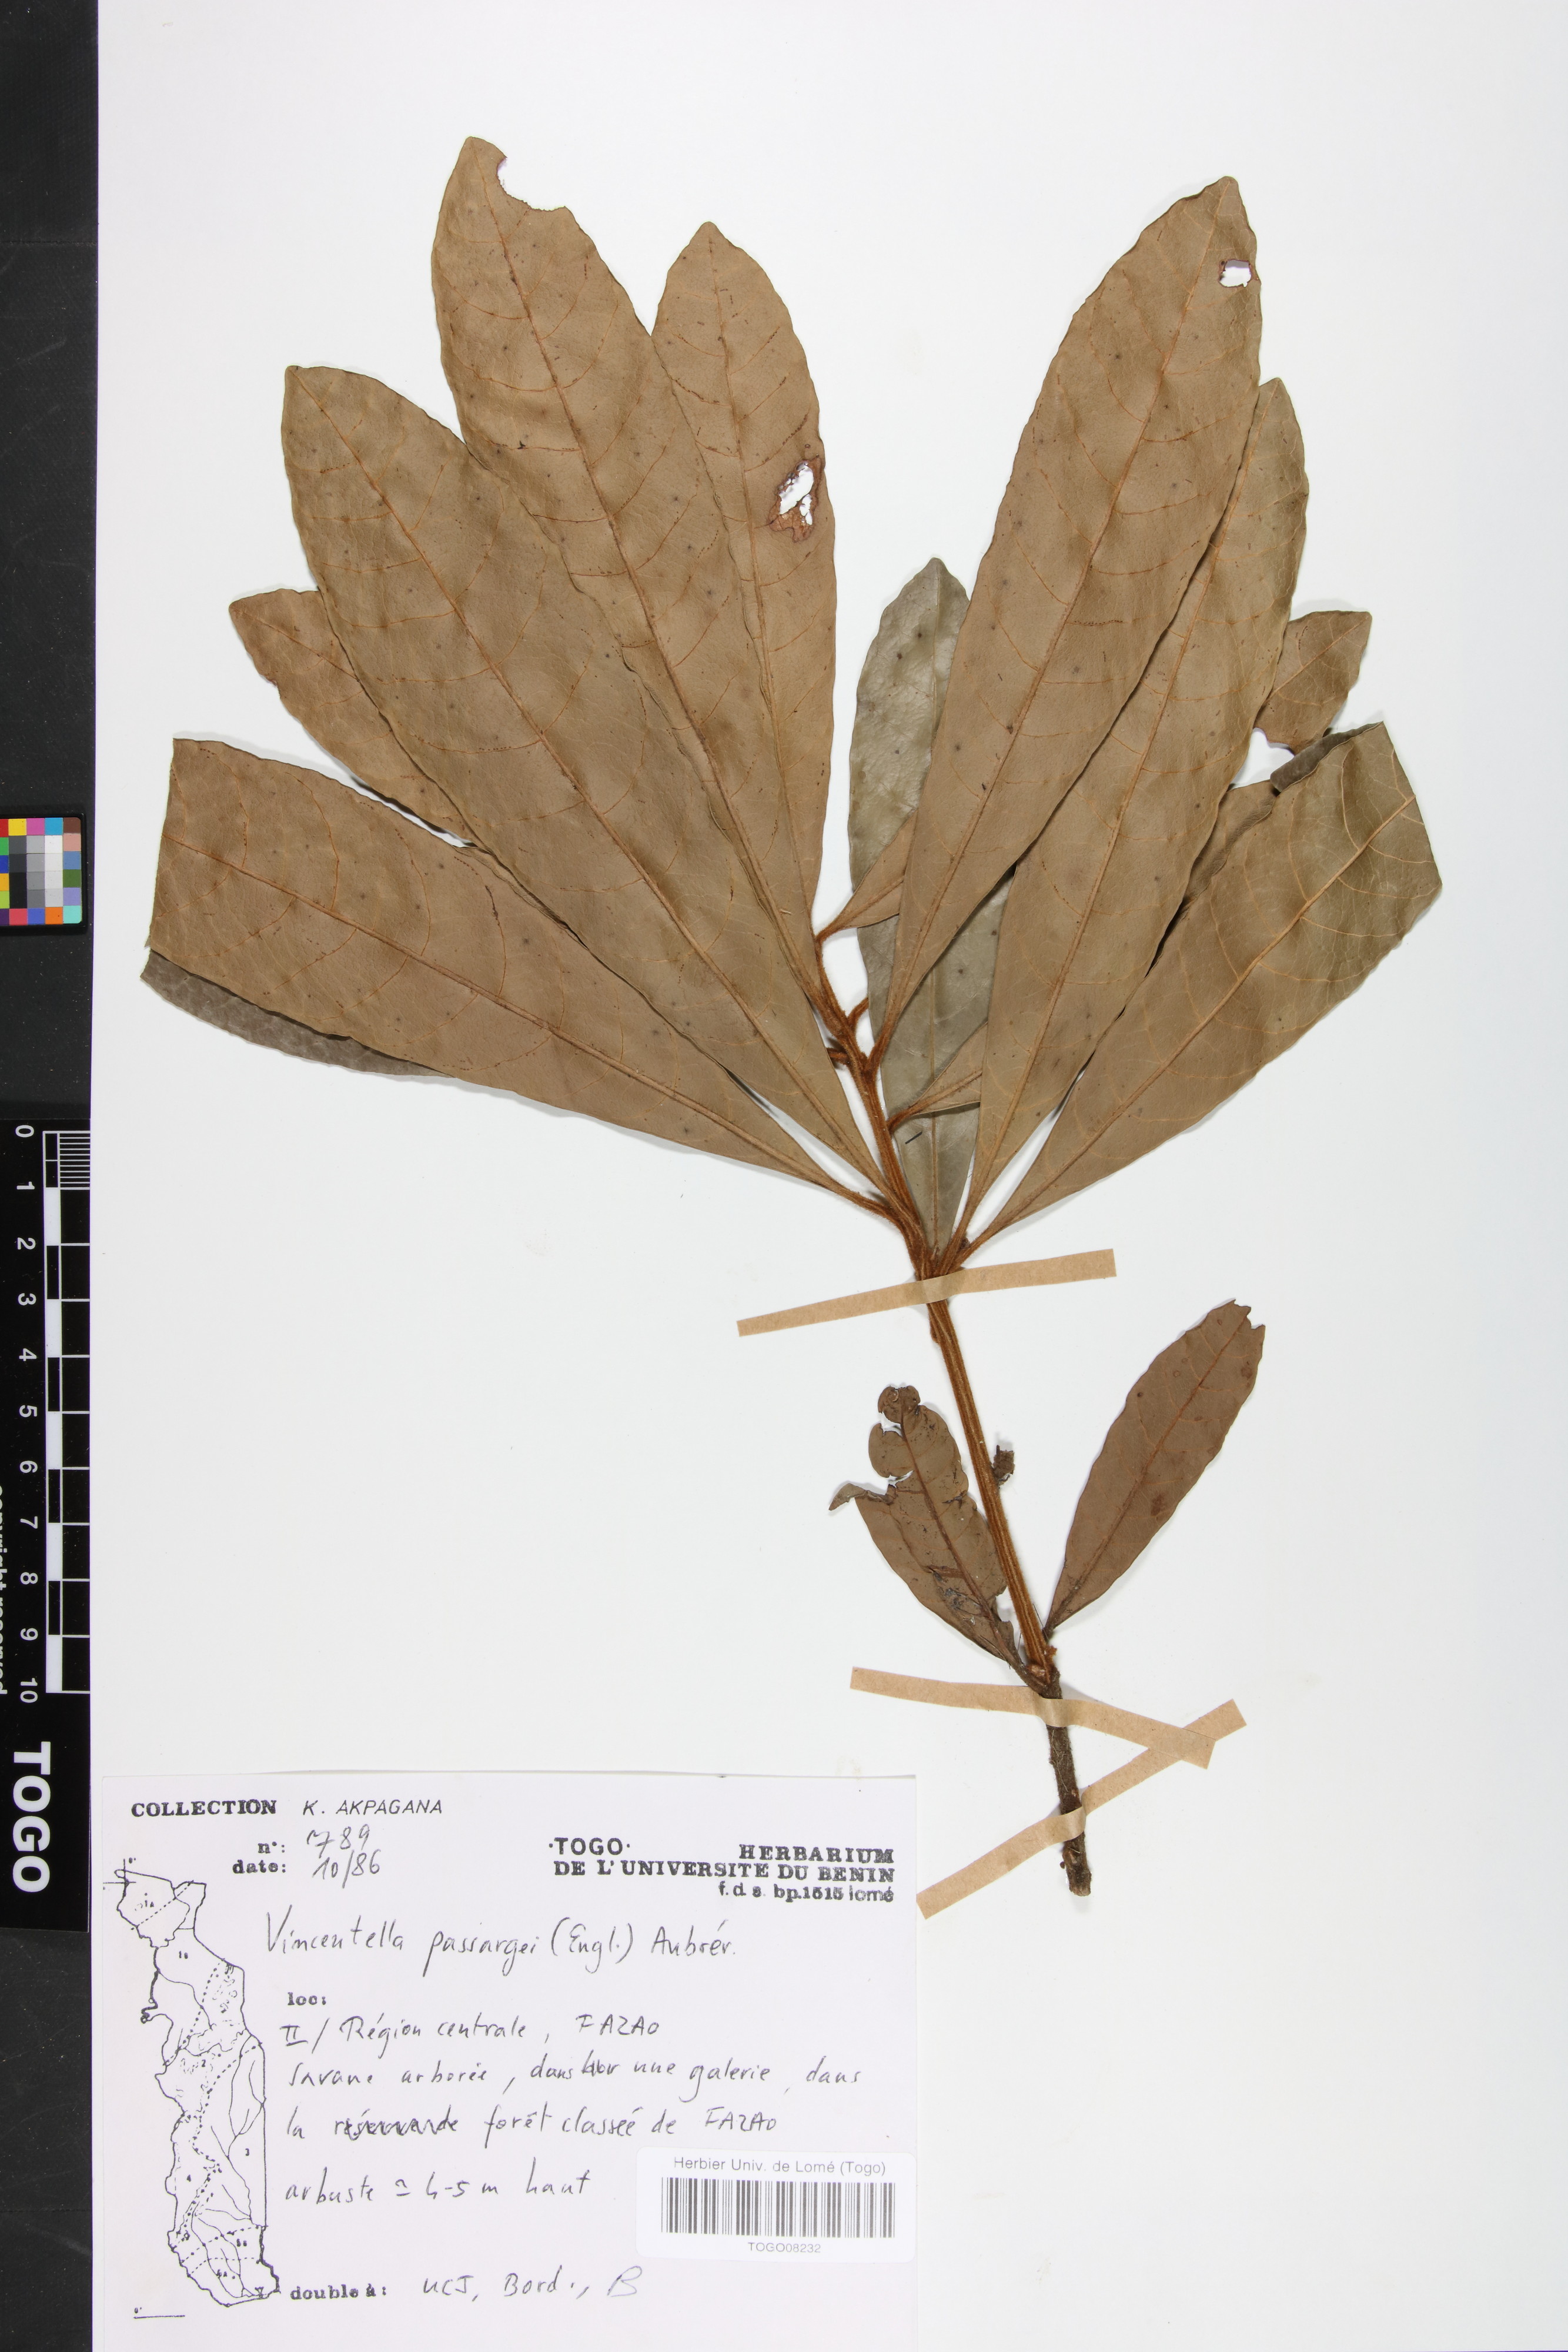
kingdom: Plantae
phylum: Tracheophyta
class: Magnoliopsida
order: Ericales
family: Sapotaceae
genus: Synsepalum
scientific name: Synsepalum passargei
